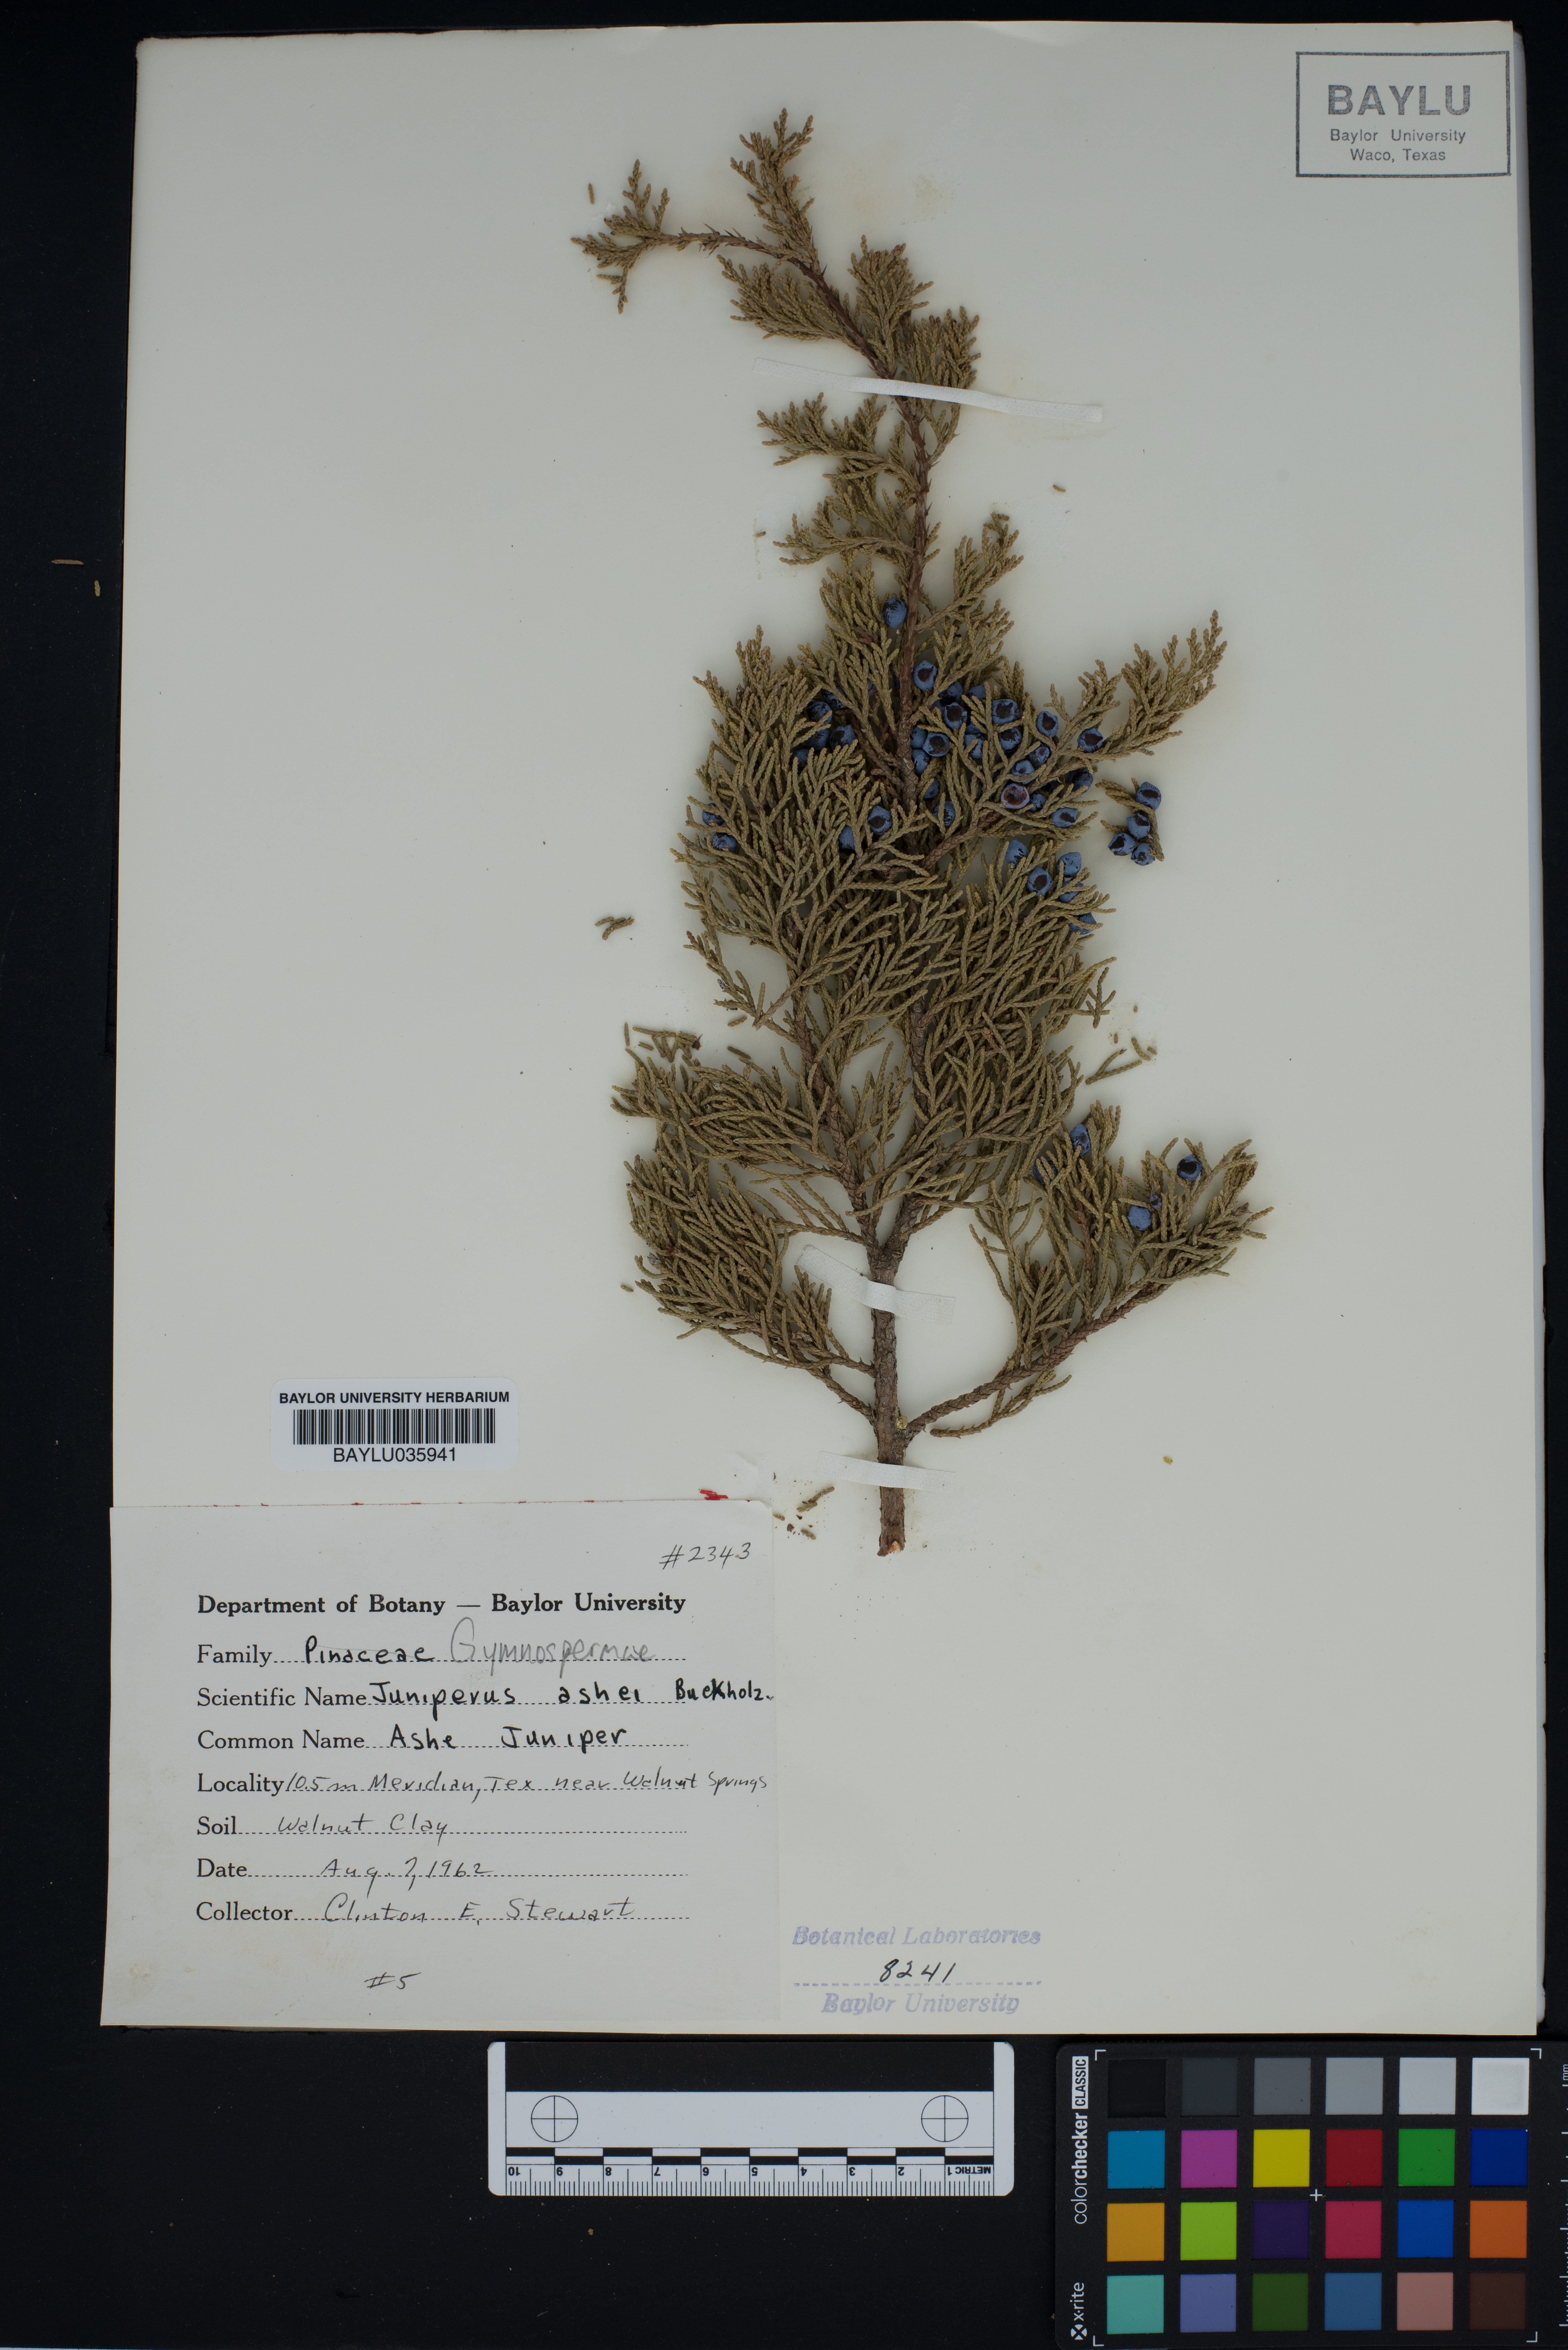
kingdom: Plantae
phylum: Tracheophyta
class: Pinopsida
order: Pinales
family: Cupressaceae
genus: Juniperus
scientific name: Juniperus ashei
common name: Mexican juniper
